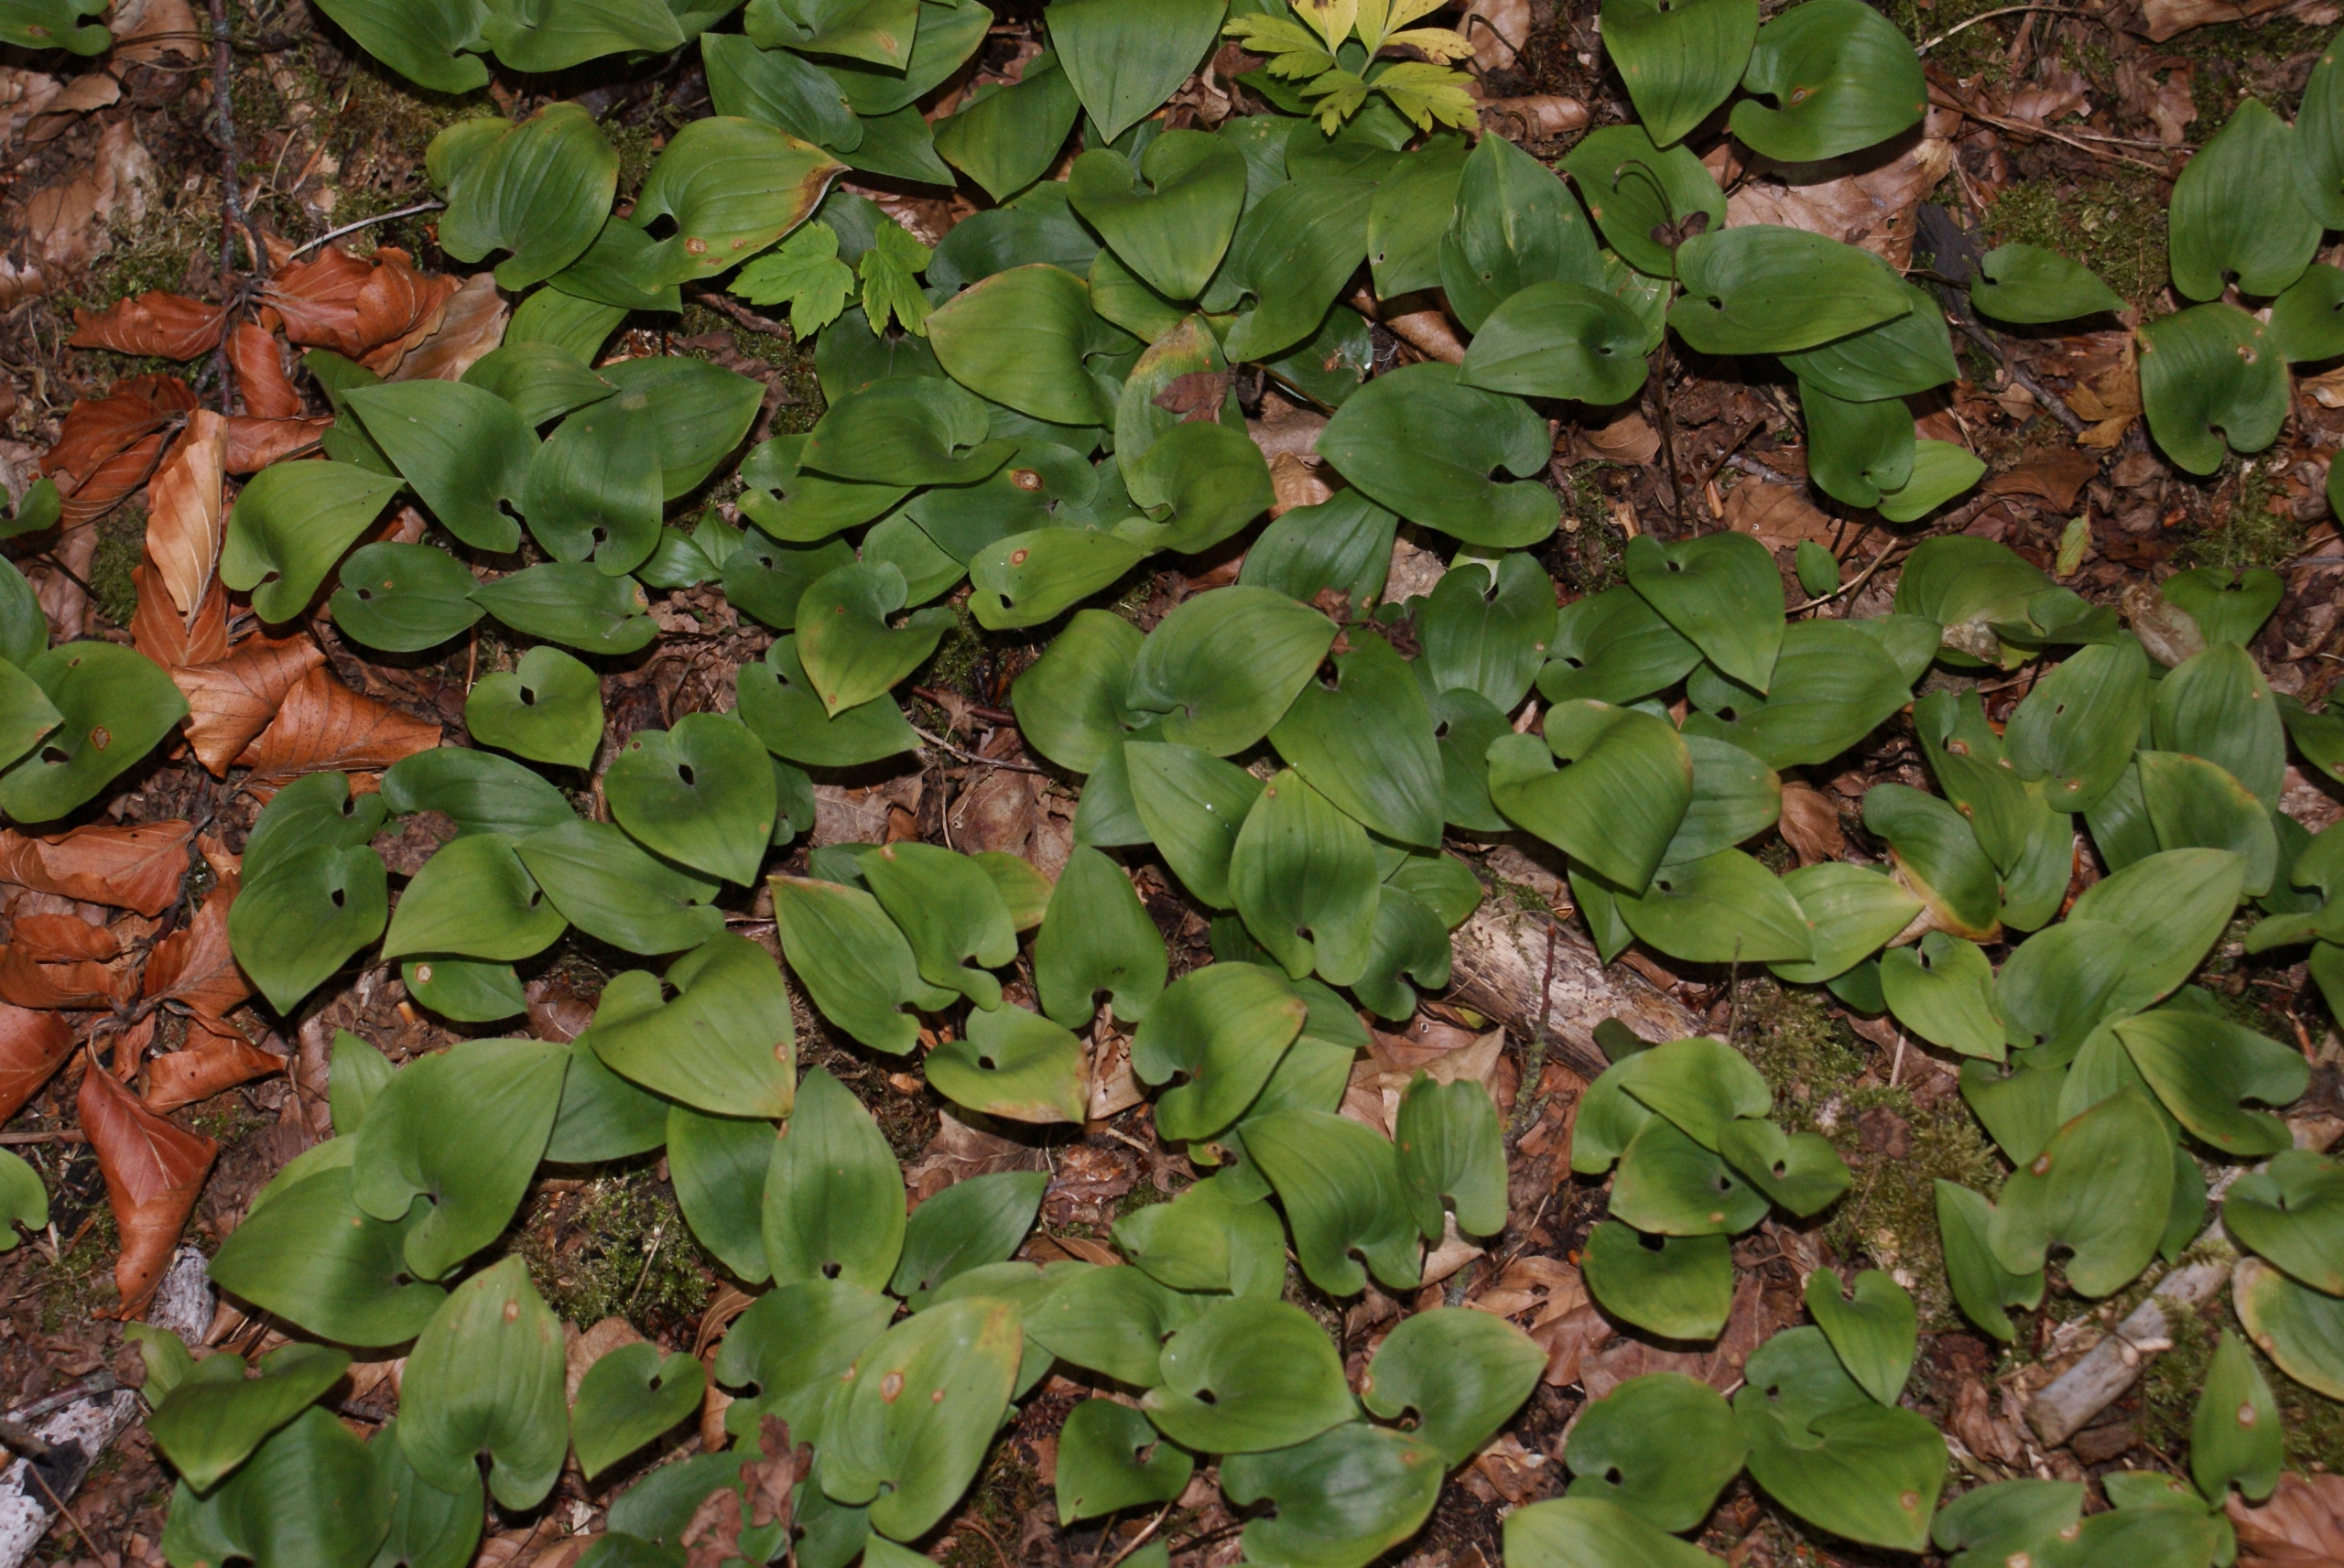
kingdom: Plantae
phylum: Tracheophyta
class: Liliopsida
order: Asparagales
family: Asparagaceae
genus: Maianthemum
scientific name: Maianthemum bifolium
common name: Majblomst
